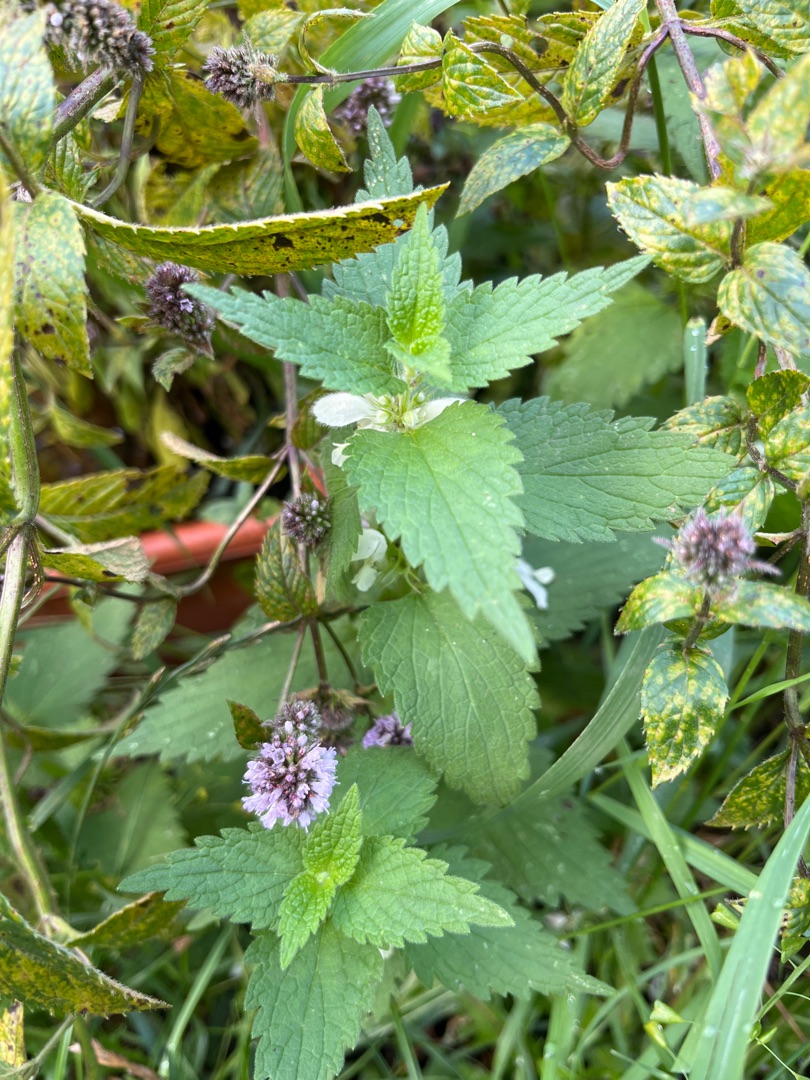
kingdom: Plantae
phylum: Tracheophyta
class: Magnoliopsida
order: Lamiales
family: Lamiaceae
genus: Lamium
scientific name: Lamium album
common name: Døvnælde
